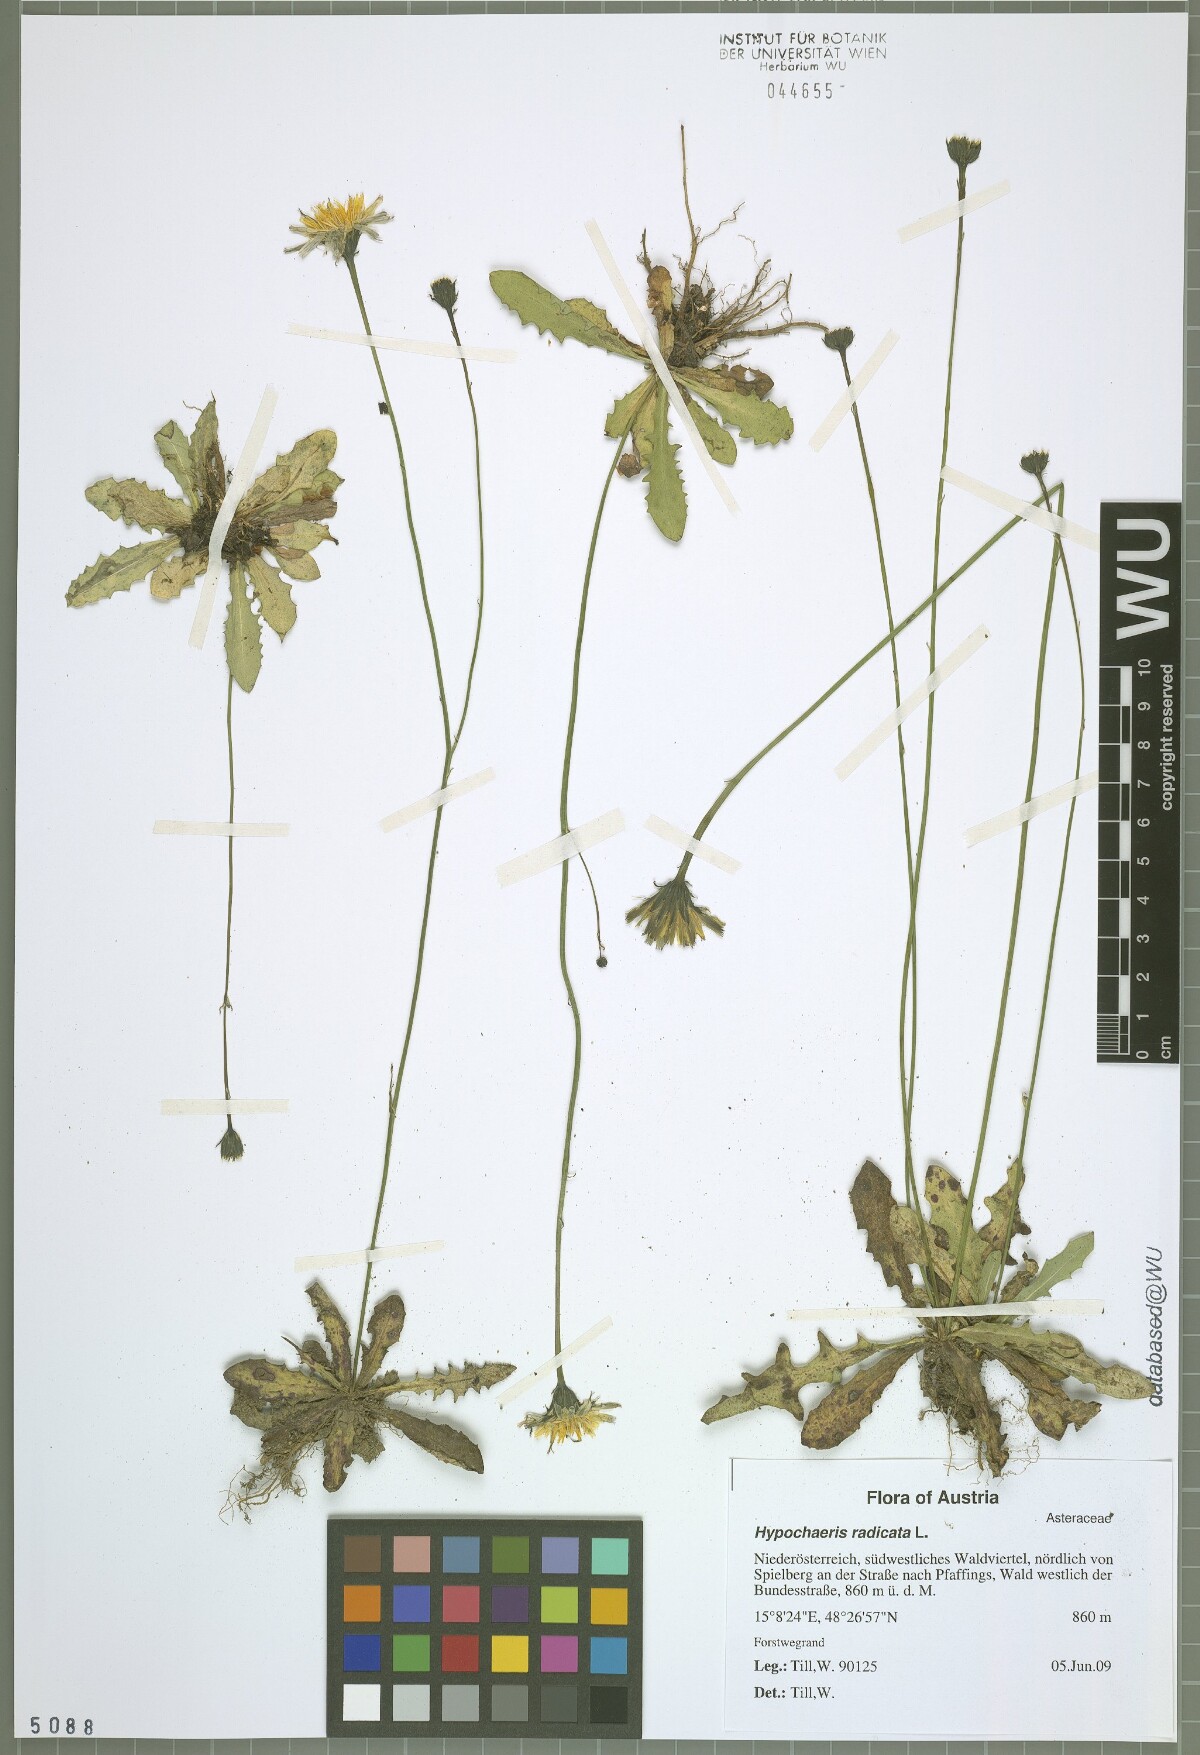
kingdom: Plantae
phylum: Tracheophyta
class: Magnoliopsida
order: Asterales
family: Asteraceae
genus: Hypochaeris
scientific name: Hypochaeris radicata
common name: Flatweed
